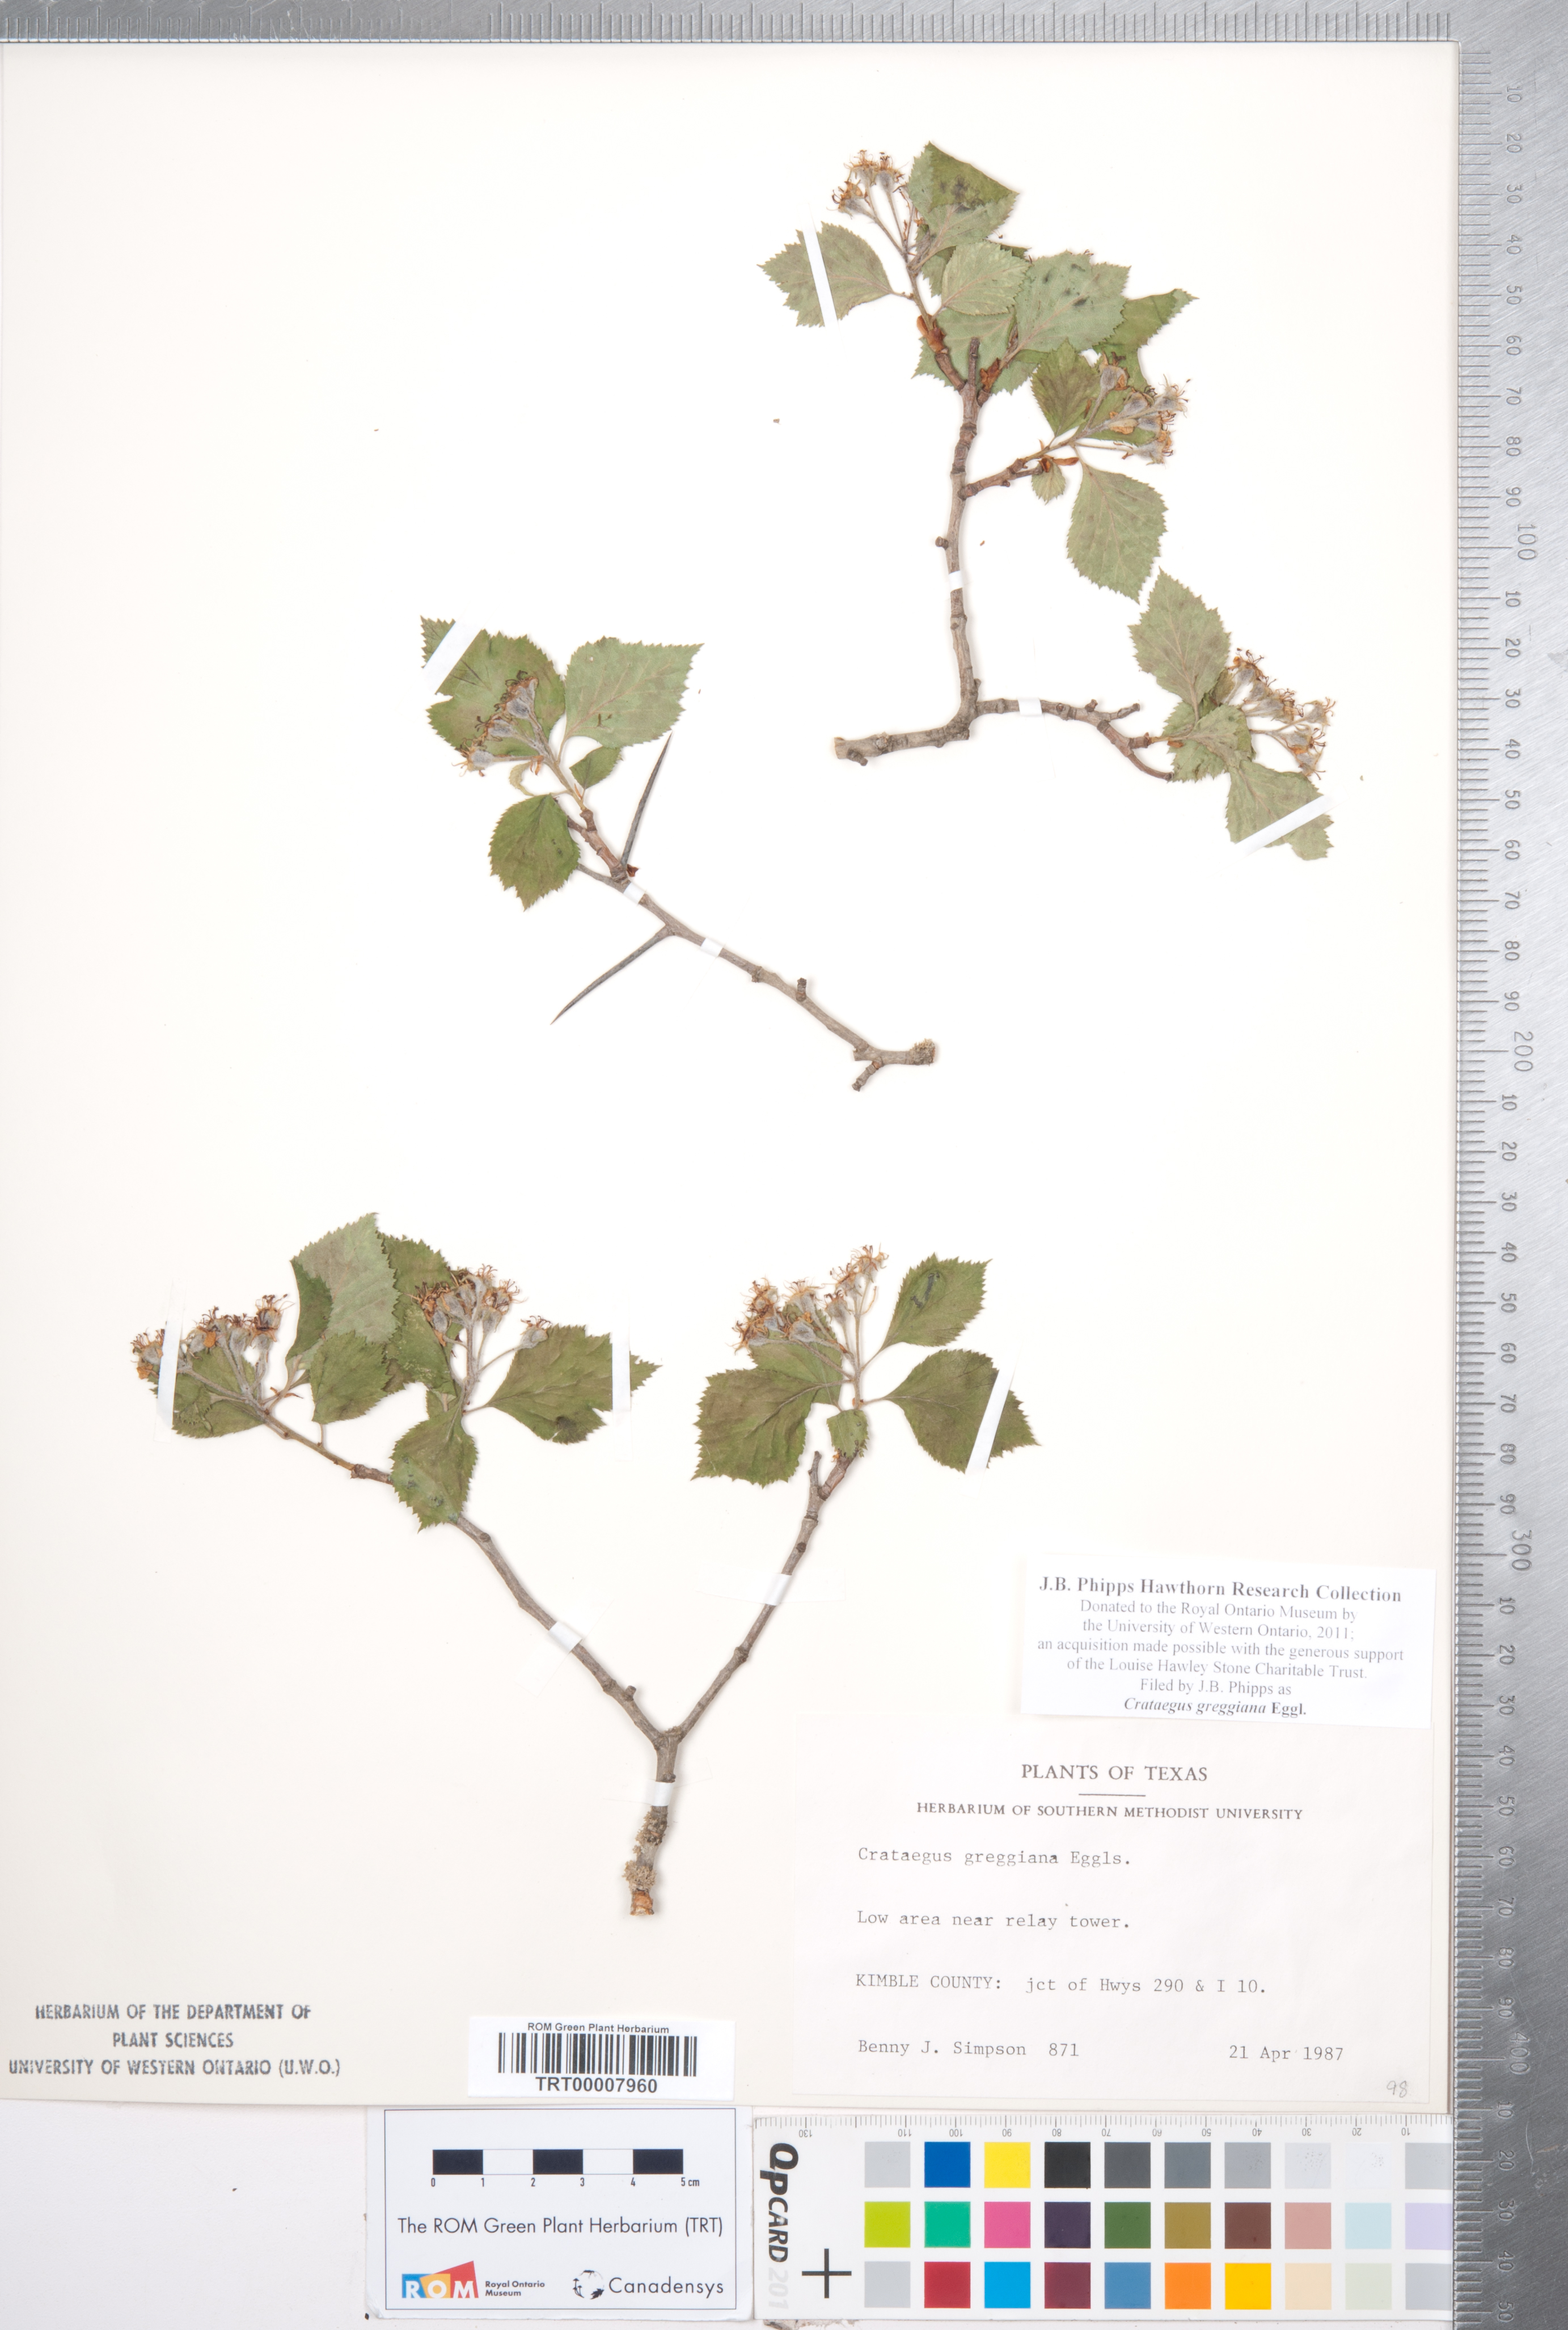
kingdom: Plantae
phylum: Tracheophyta
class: Magnoliopsida
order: Rosales
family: Rosaceae
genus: Crataegus
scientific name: Crataegus greggiana
